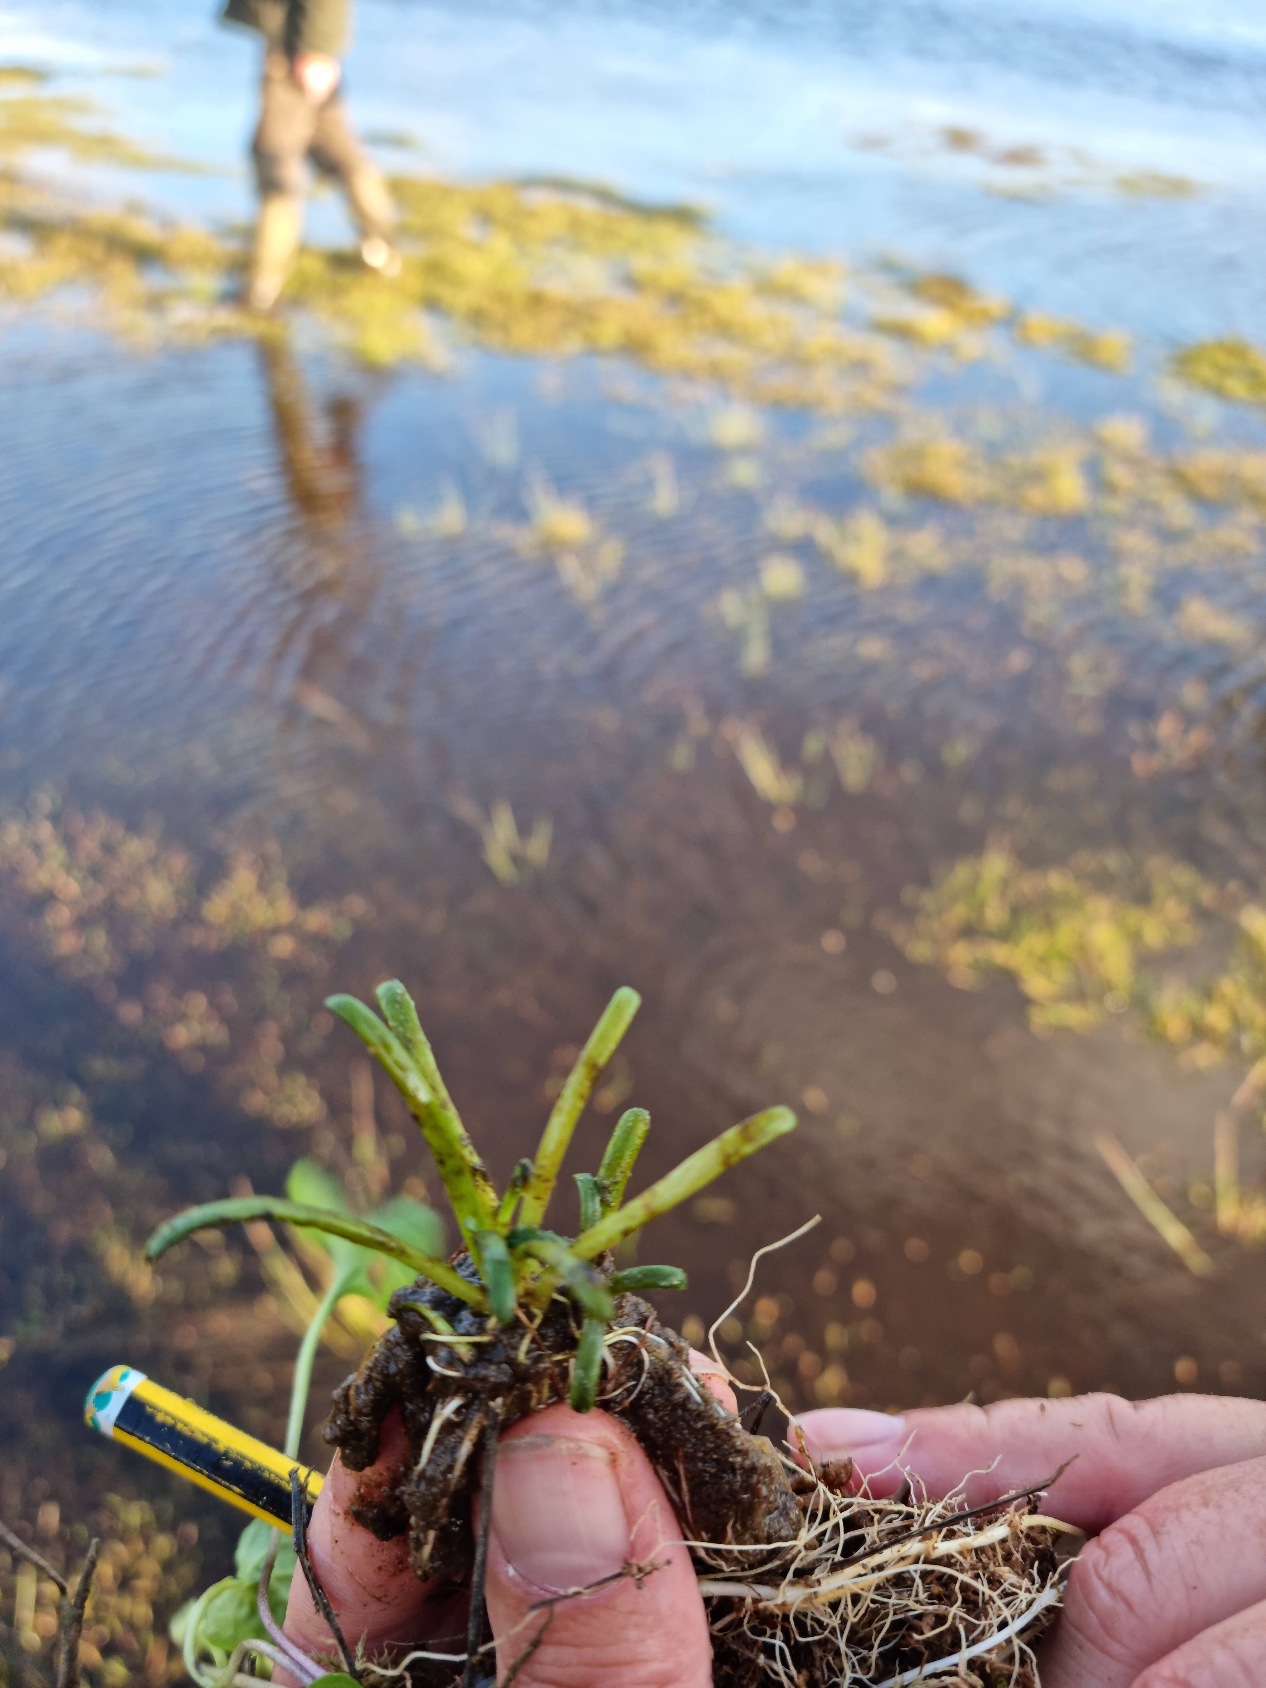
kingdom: Plantae
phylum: Tracheophyta
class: Magnoliopsida
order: Asterales
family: Campanulaceae
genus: Lobelia
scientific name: Lobelia dortmanna
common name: Tvepibet lobelie
